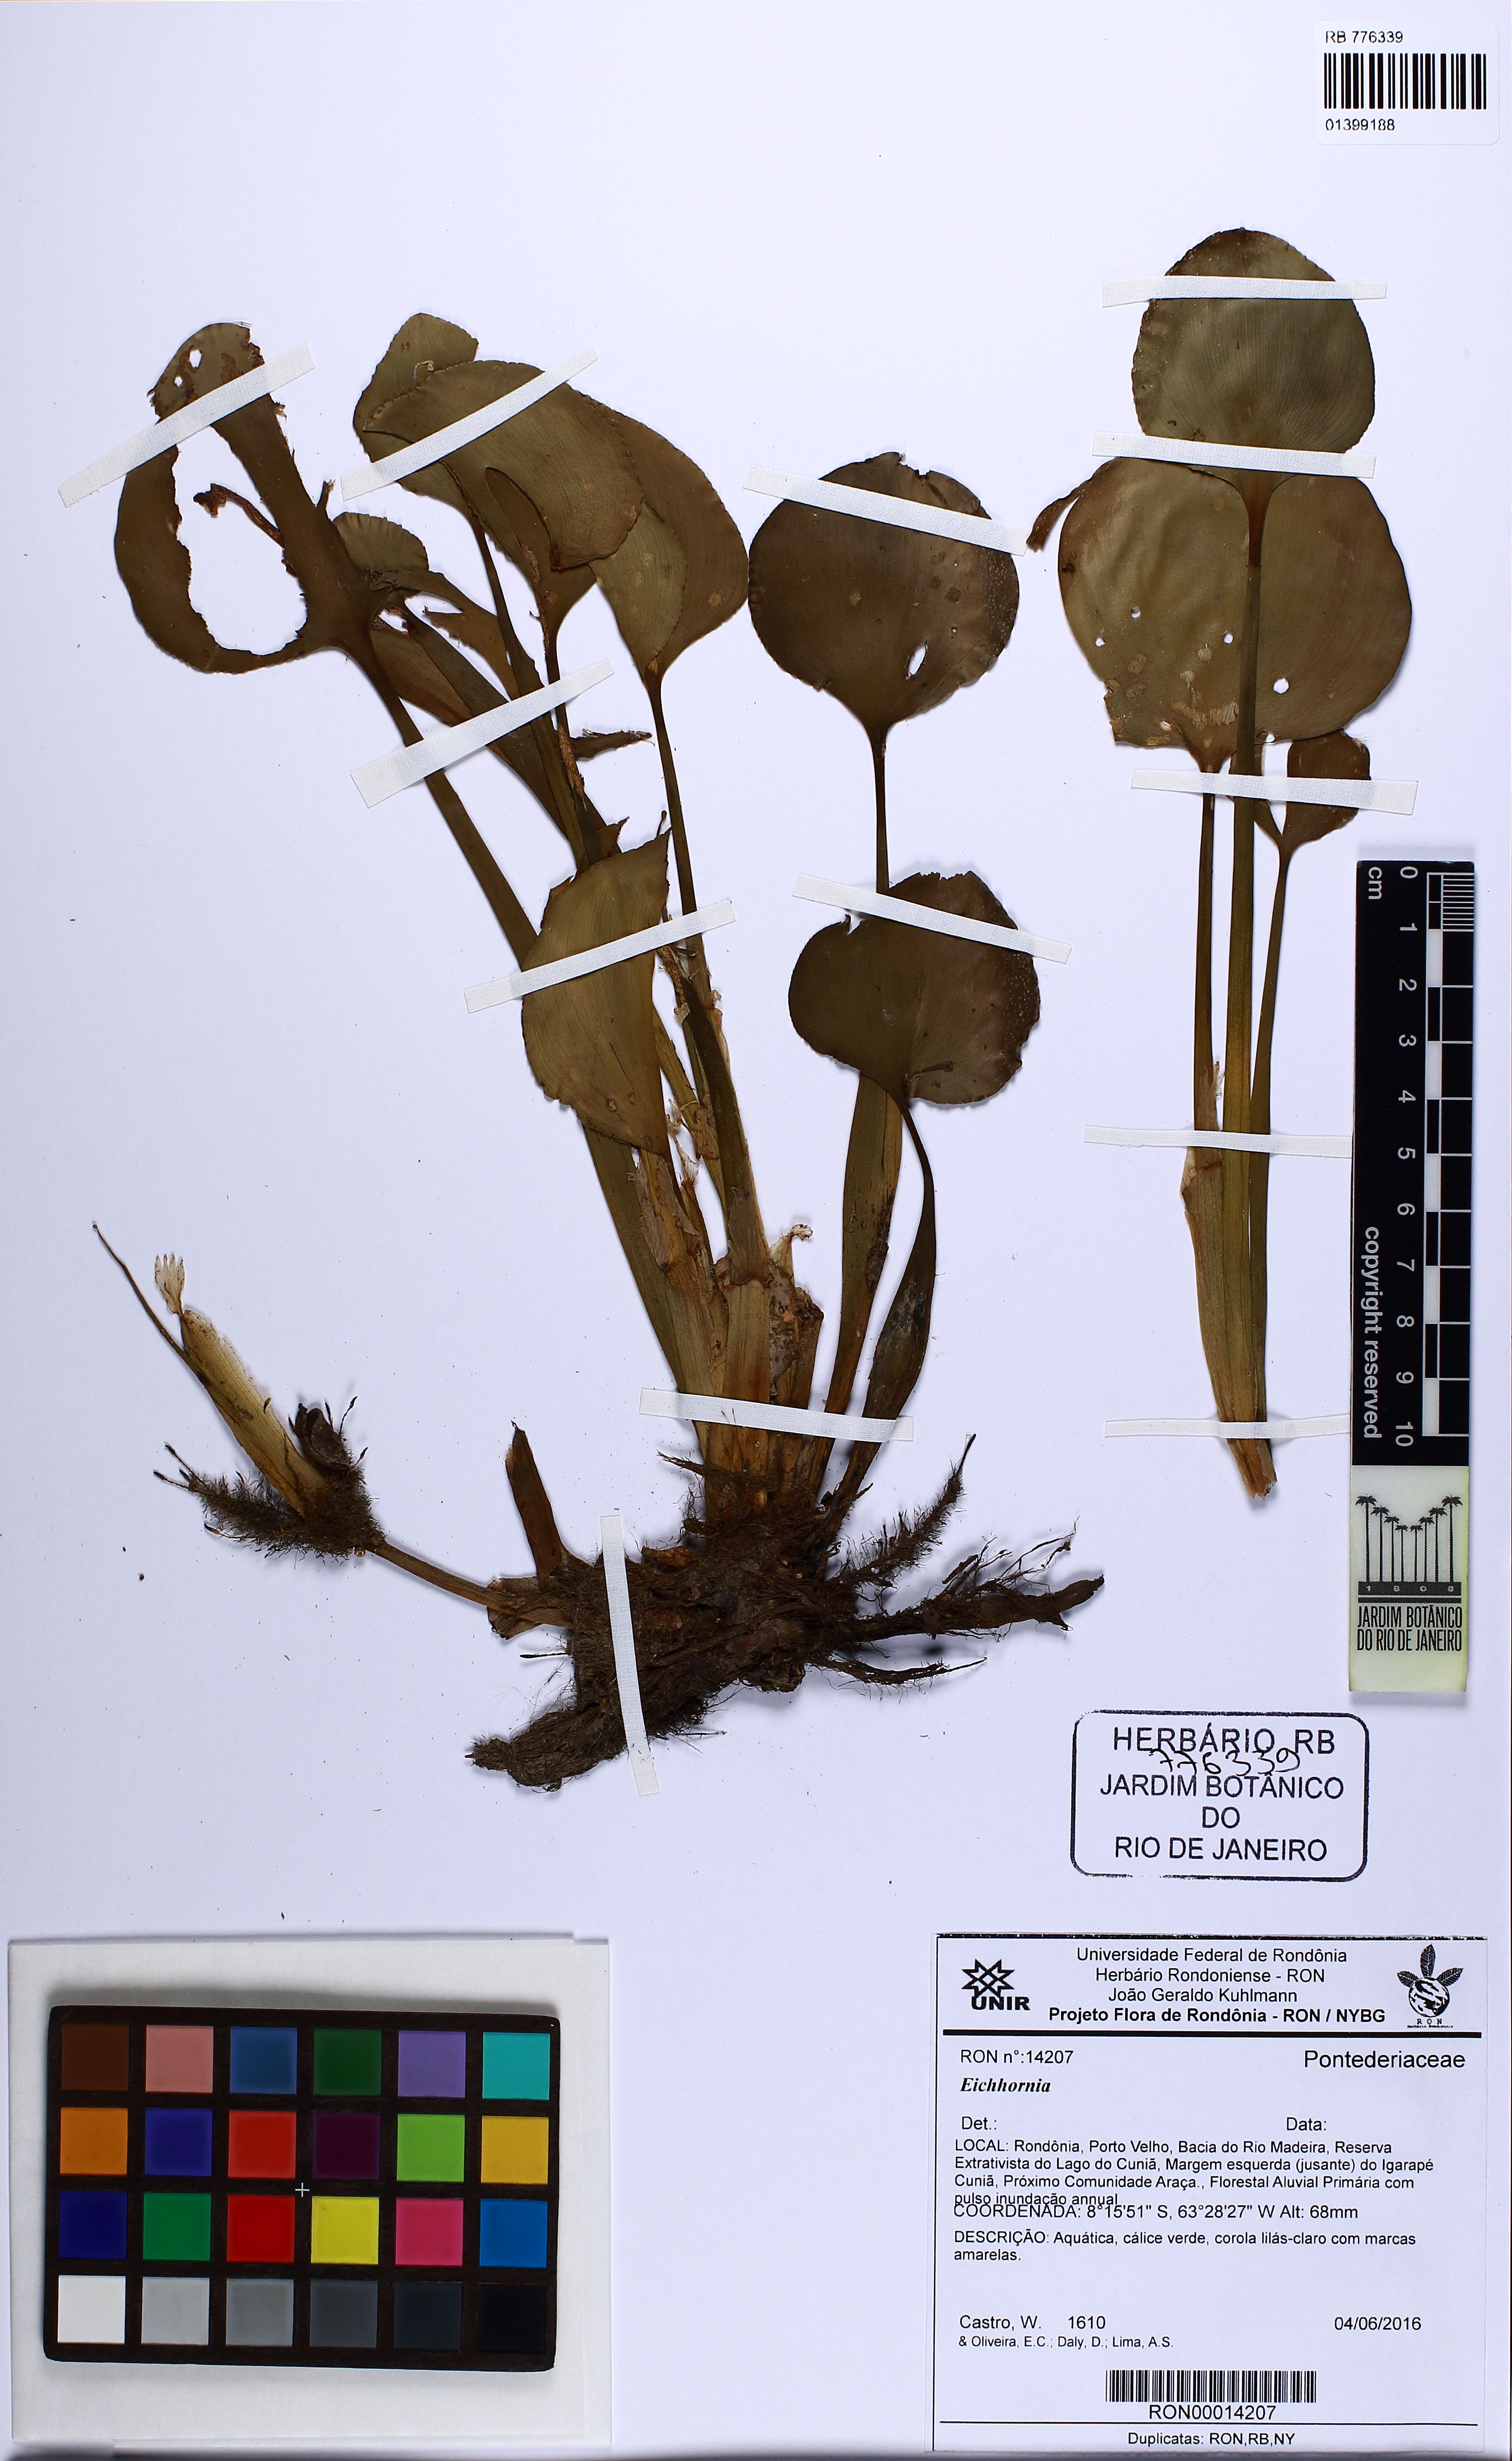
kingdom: Plantae
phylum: Tracheophyta
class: Liliopsida
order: Commelinales
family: Pontederiaceae
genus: Pontederia
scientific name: Pontederia
